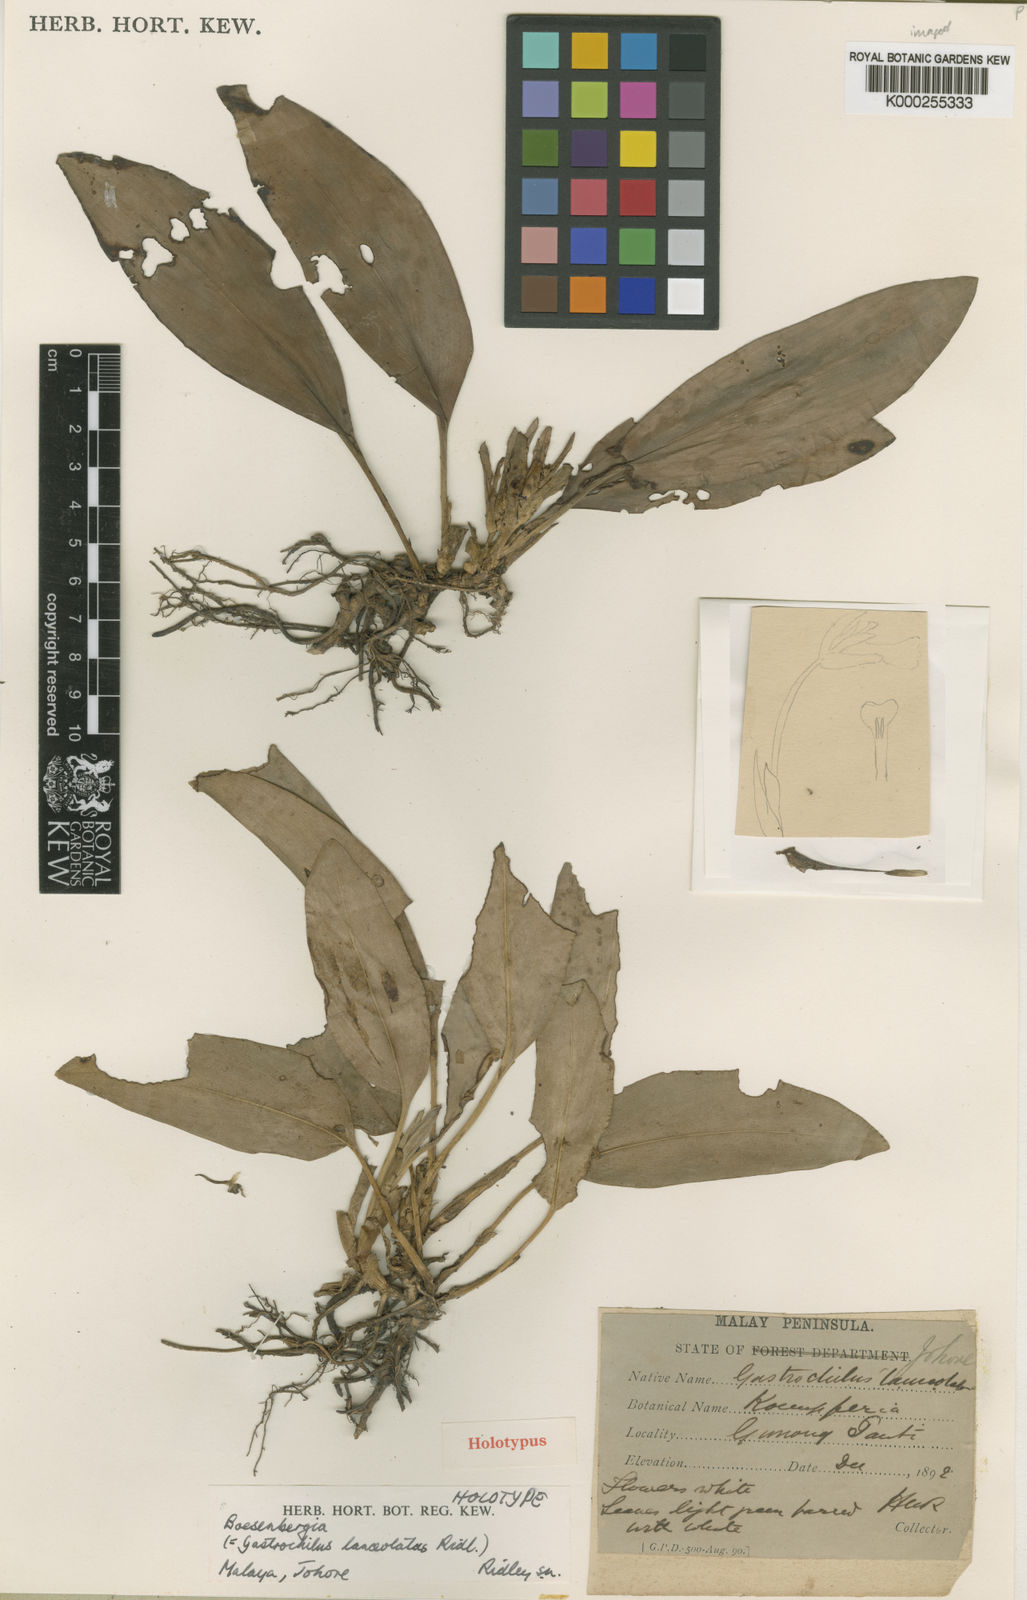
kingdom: Plantae
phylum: Tracheophyta
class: Liliopsida
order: Zingiberales
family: Zingiberaceae
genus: Scaphochlamys
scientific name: Scaphochlamys lanceolata
